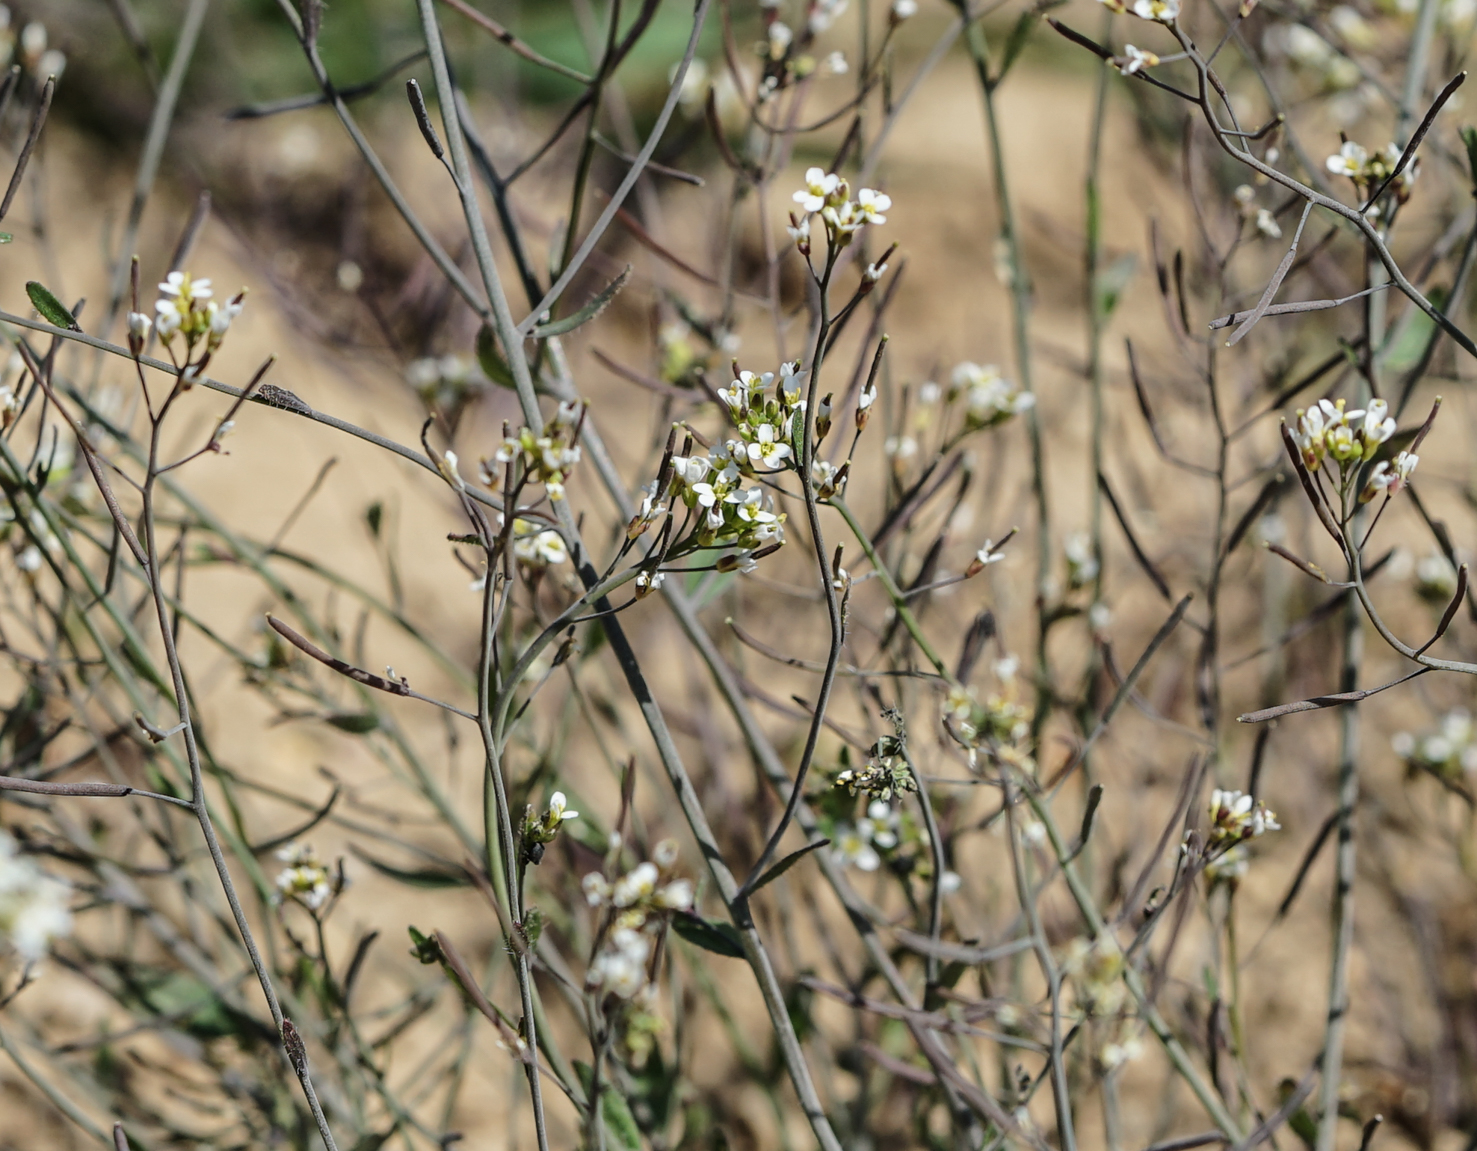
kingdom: Plantae
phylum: Tracheophyta
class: Magnoliopsida
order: Brassicales
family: Brassicaceae
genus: Arabidopsis
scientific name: Arabidopsis thaliana
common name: Thale cress
